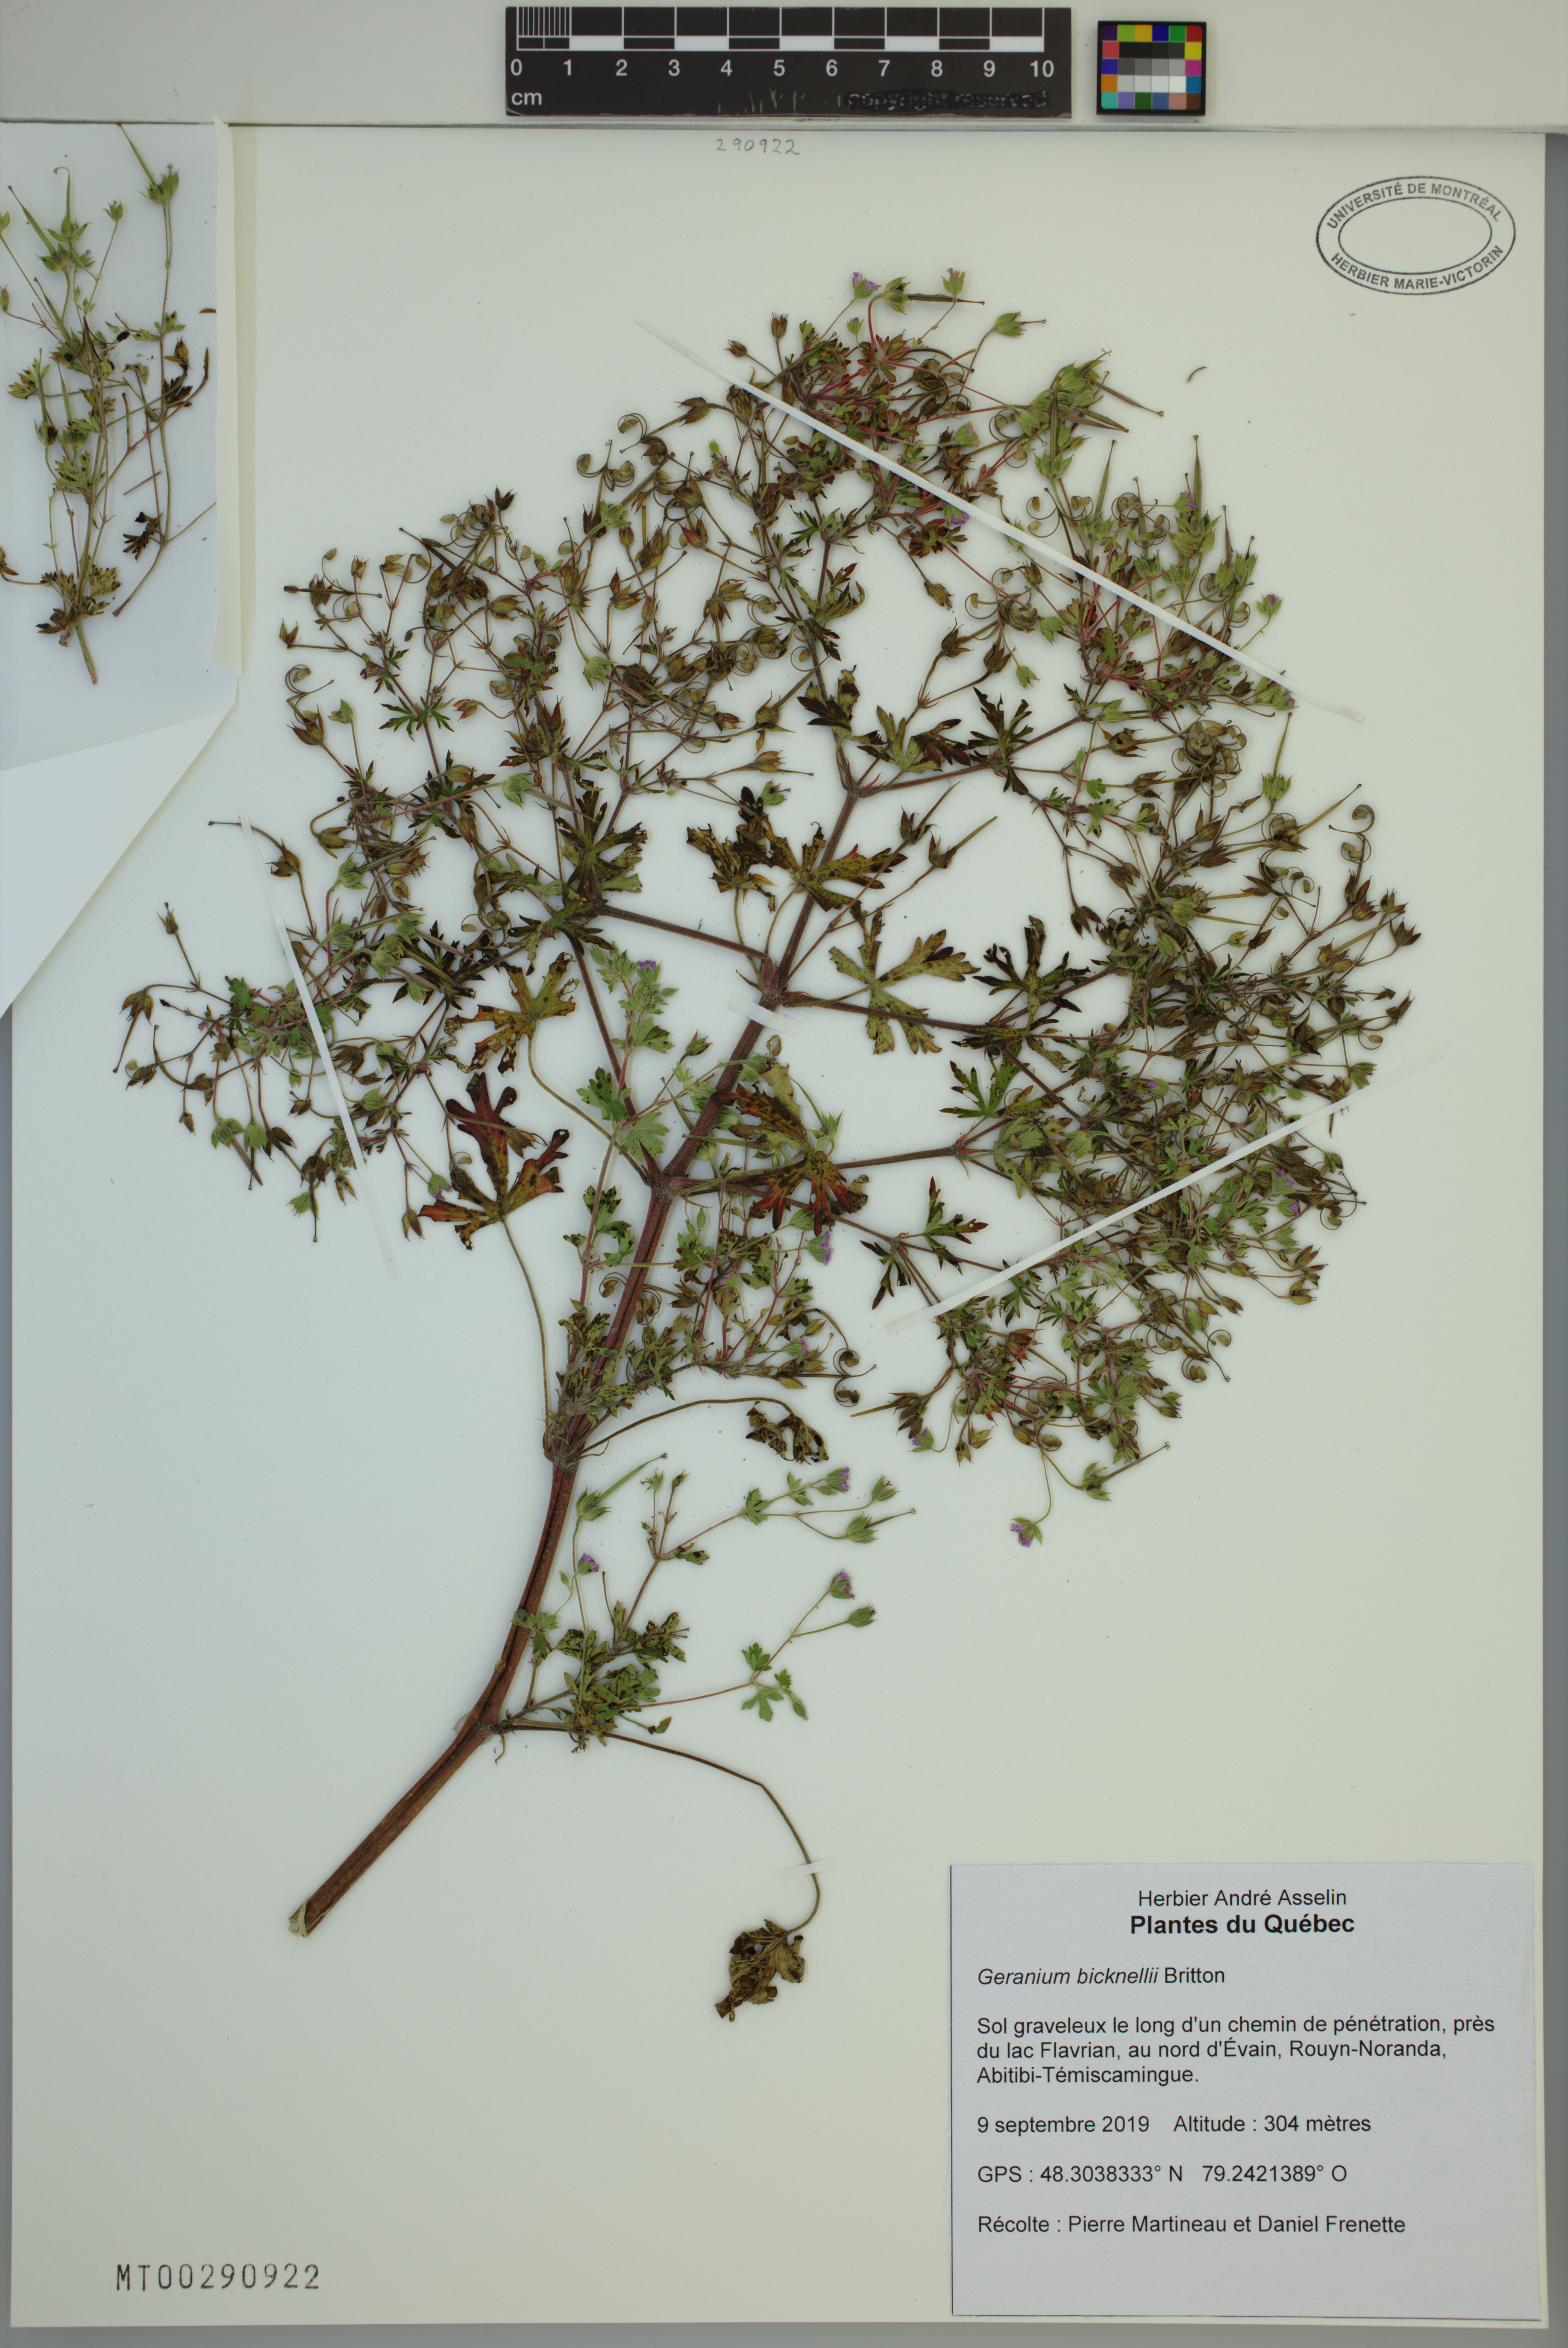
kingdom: Plantae
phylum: Tracheophyta
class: Magnoliopsida
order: Geraniales
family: Geraniaceae
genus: Geranium
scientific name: Geranium bicknellii
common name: Bicknell's cranesbill
